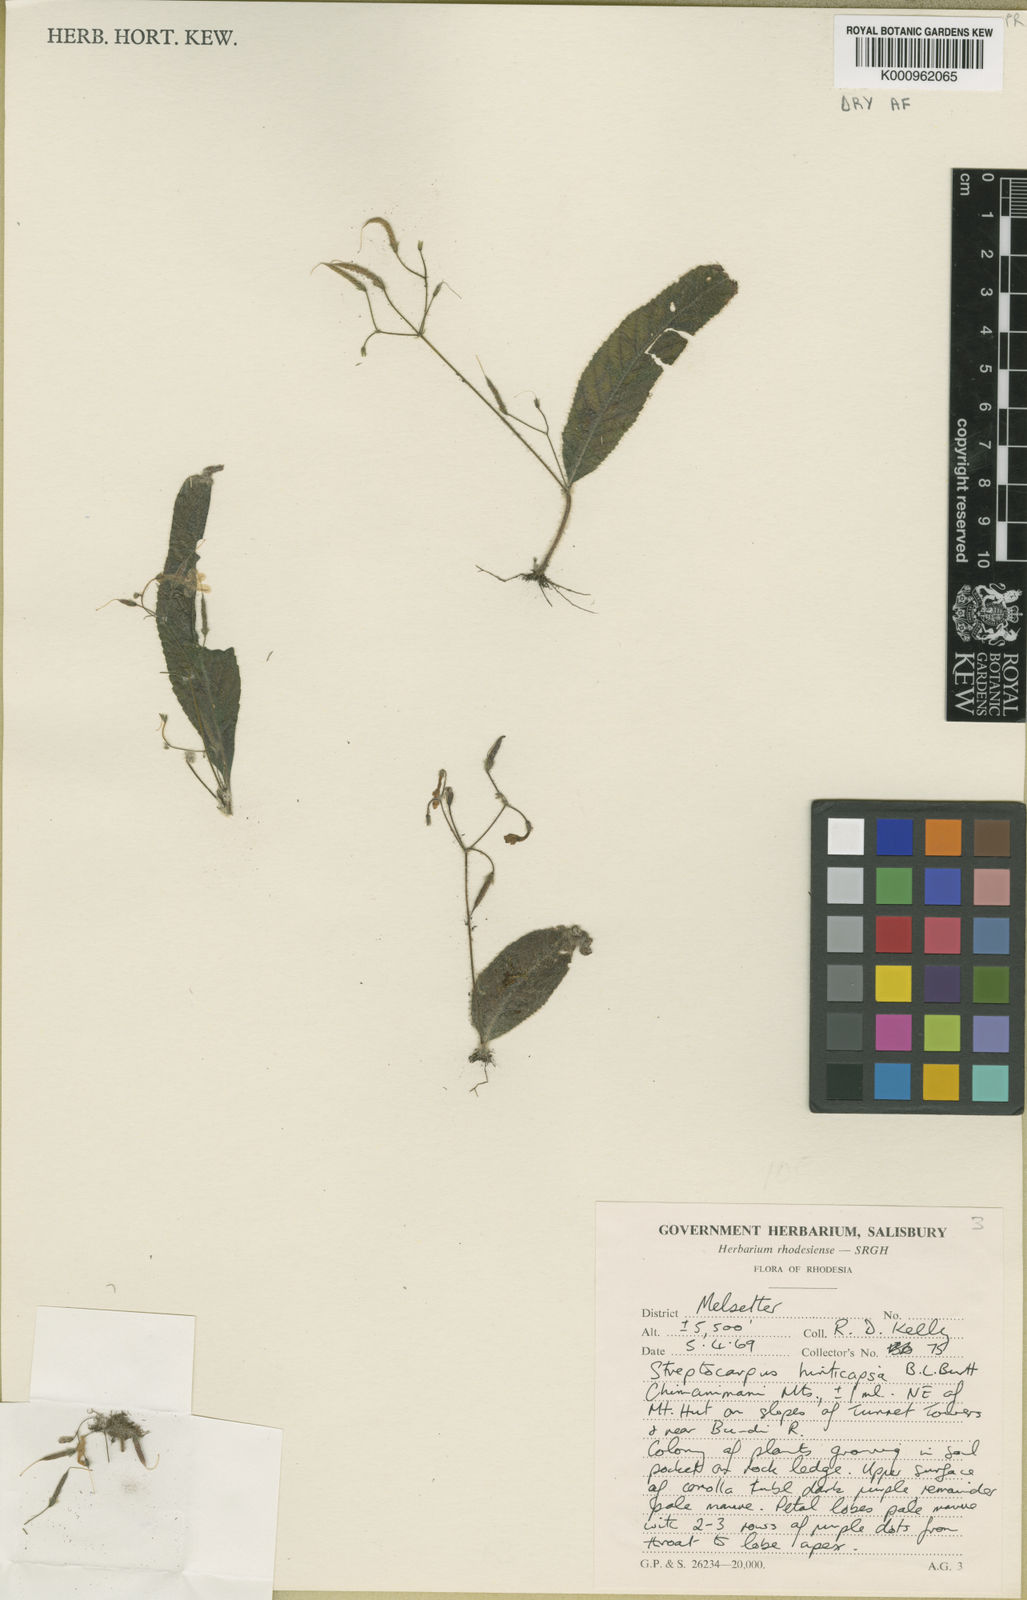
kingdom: Plantae
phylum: Tracheophyta
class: Magnoliopsida
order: Lamiales
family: Gesneriaceae
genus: Streptocarpus
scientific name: Streptocarpus hirticapsa
